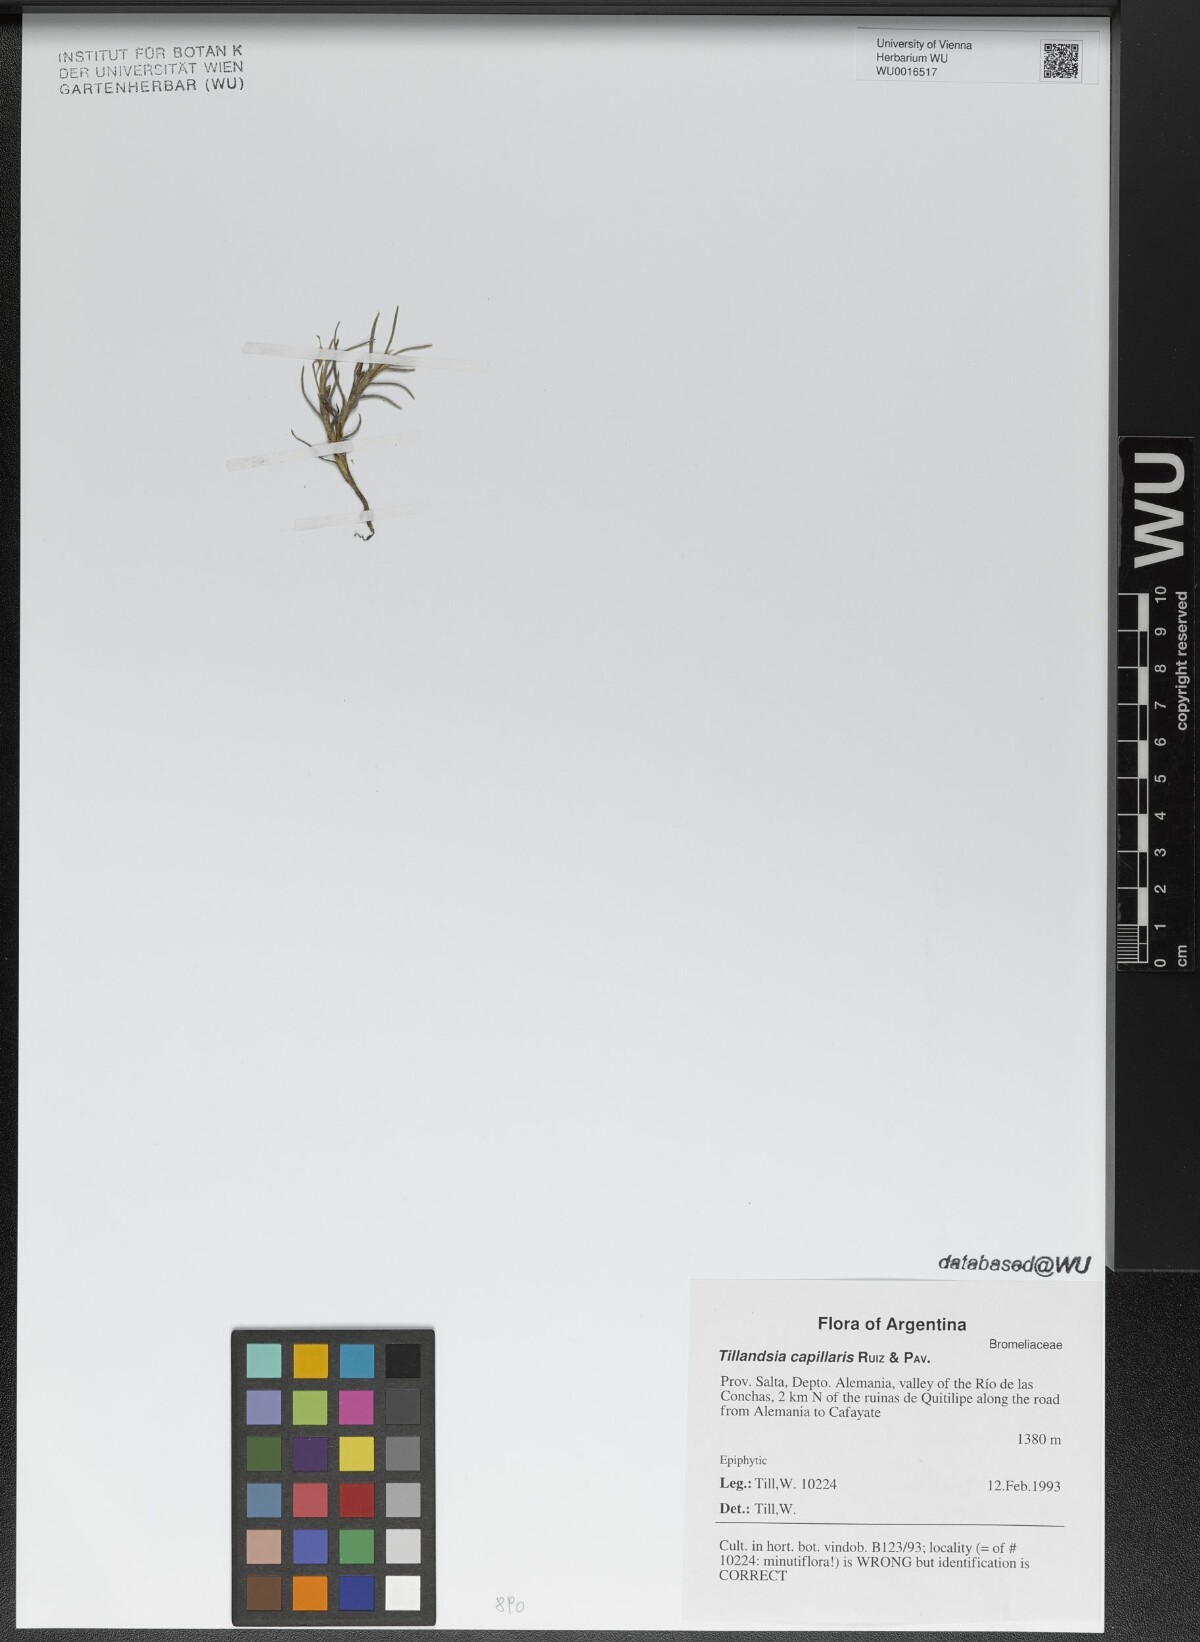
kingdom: Plantae
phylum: Tracheophyta
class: Liliopsida
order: Poales
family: Bromeliaceae
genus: Tillandsia
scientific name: Tillandsia capillaris
